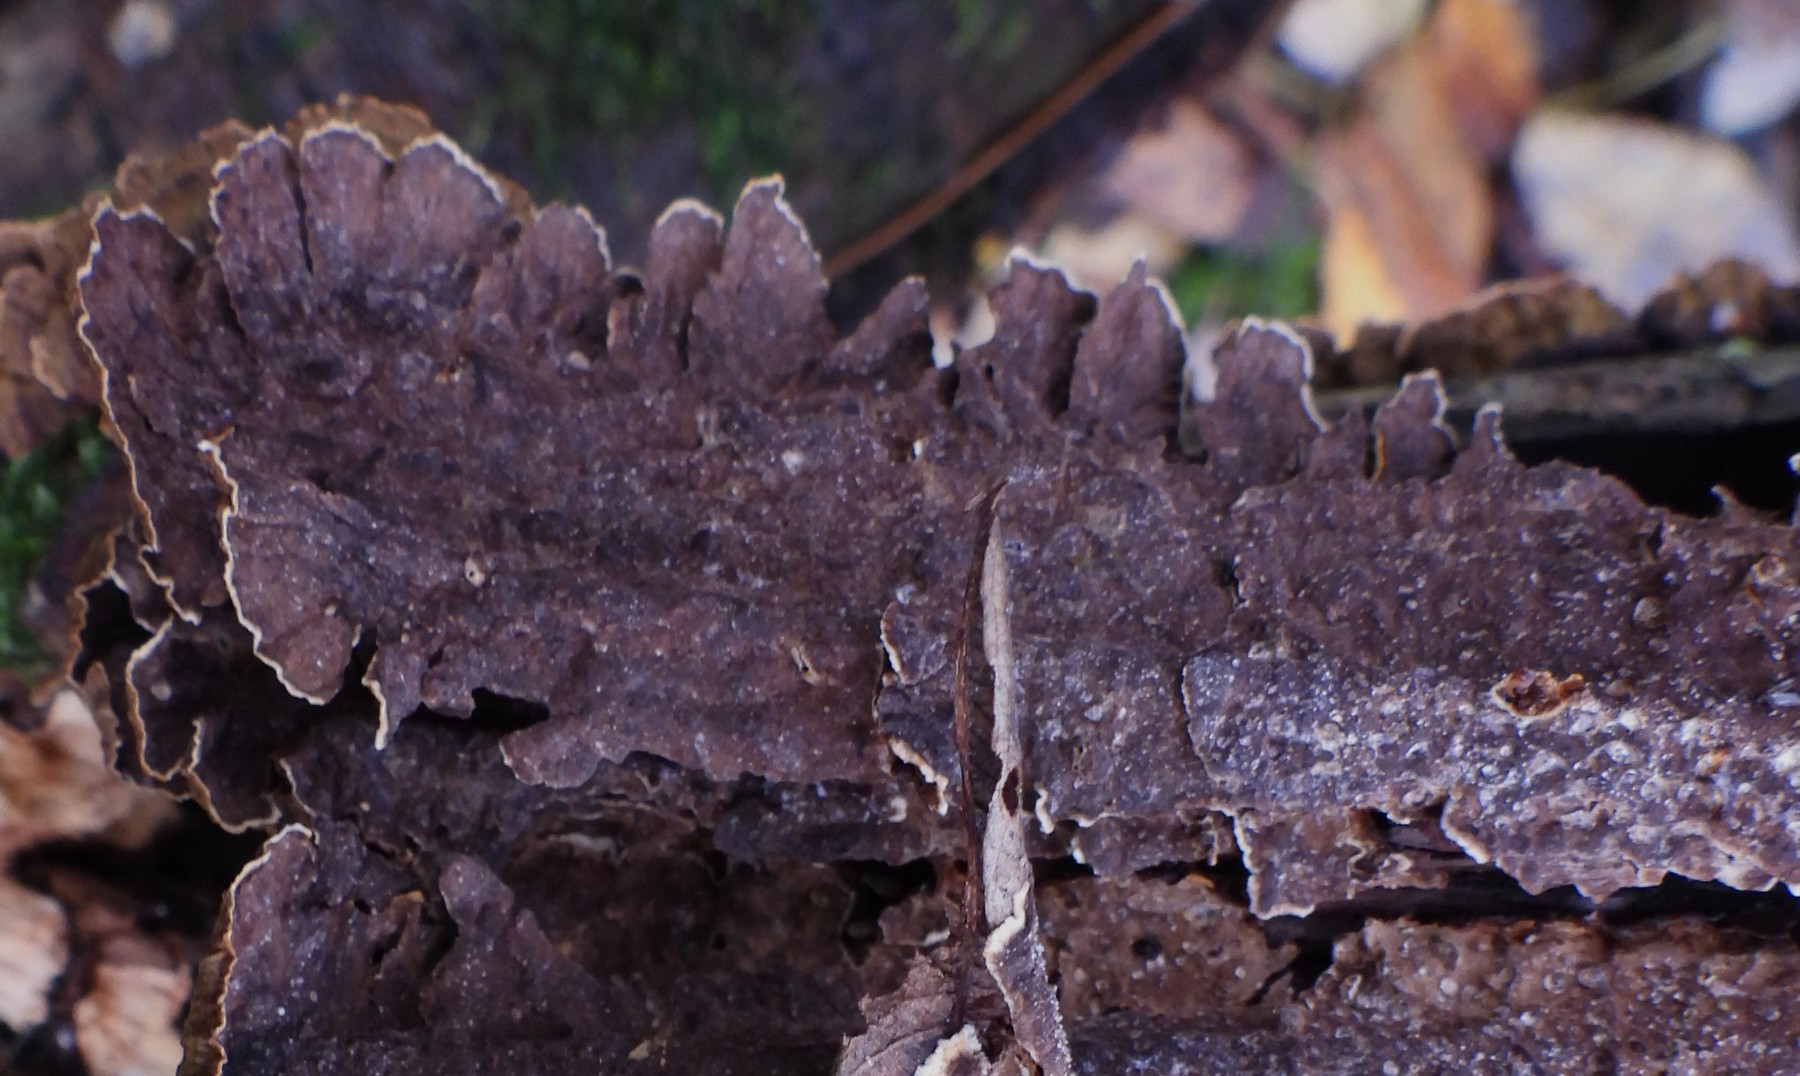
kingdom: Fungi
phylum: Basidiomycota
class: Agaricomycetes
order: Hymenochaetales
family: Hymenochaetaceae
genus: Hydnoporia
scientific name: Hydnoporia tabacina
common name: tobaksbrun ruslædersvamp
